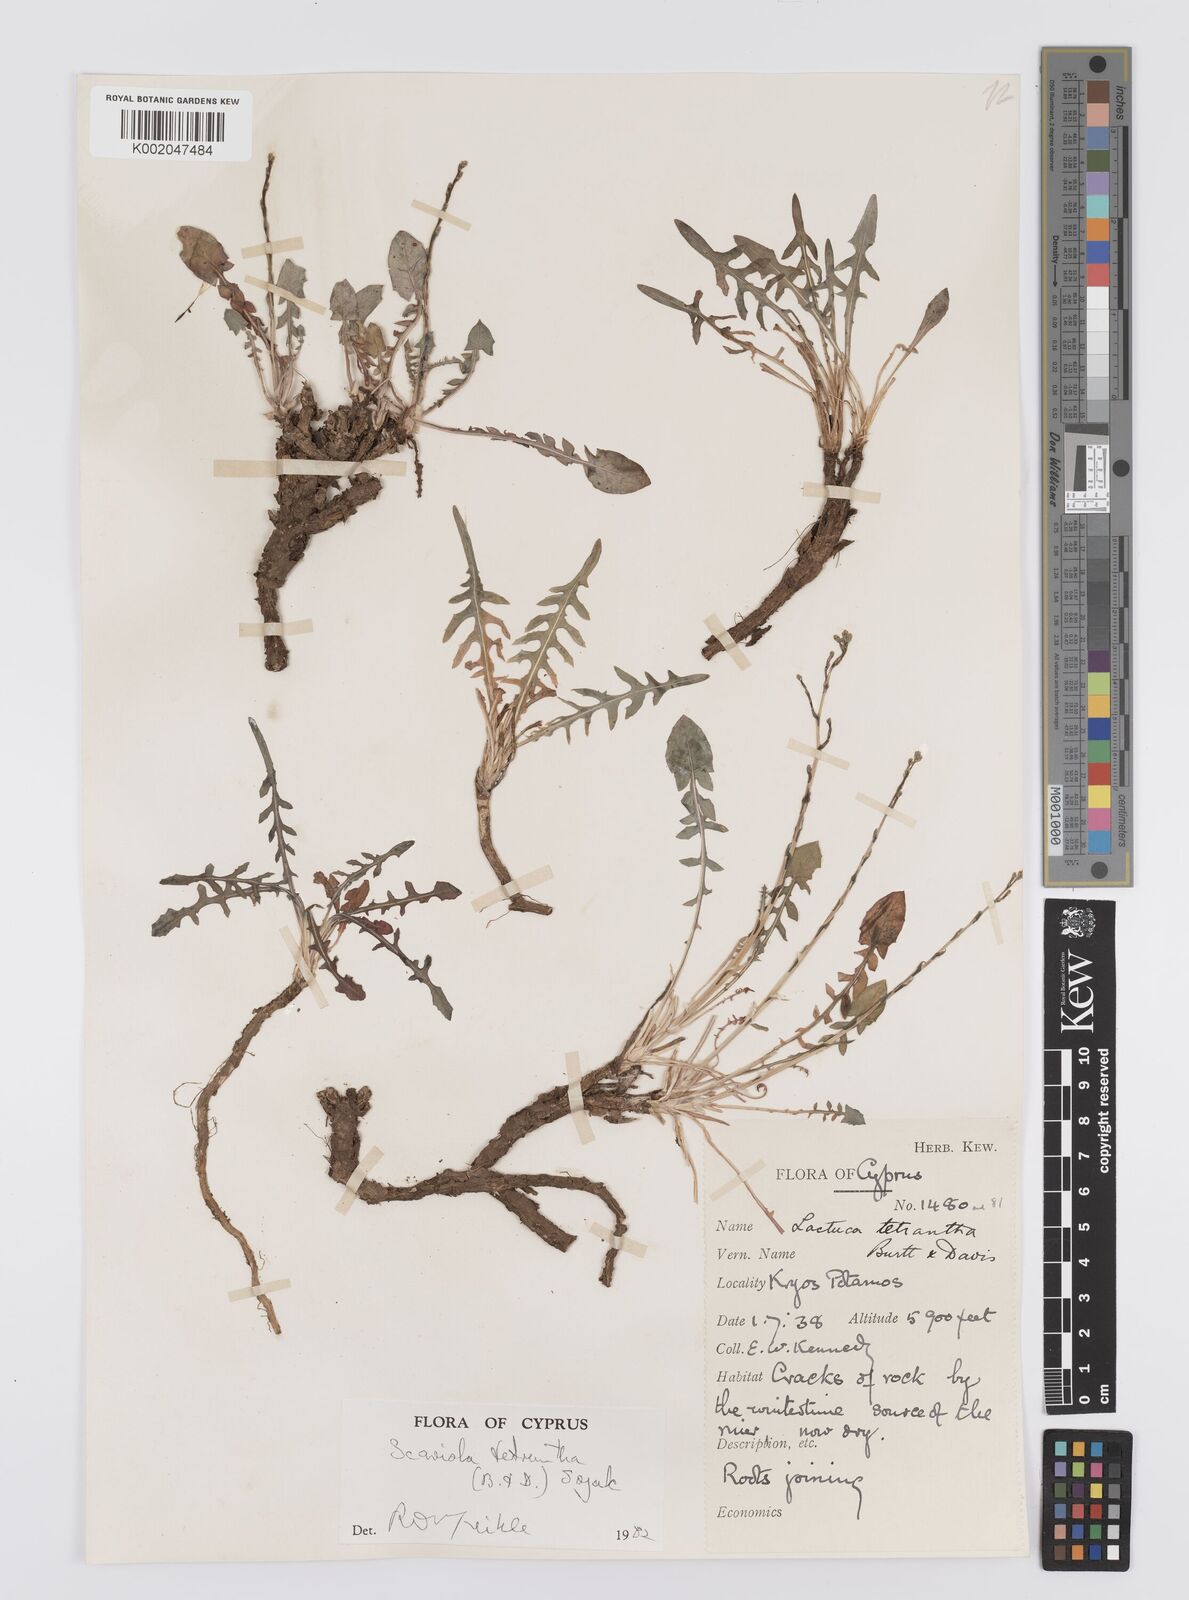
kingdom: Plantae
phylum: Tracheophyta
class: Magnoliopsida
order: Asterales
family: Asteraceae
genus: Lactuca
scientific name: Lactuca tetrantha
